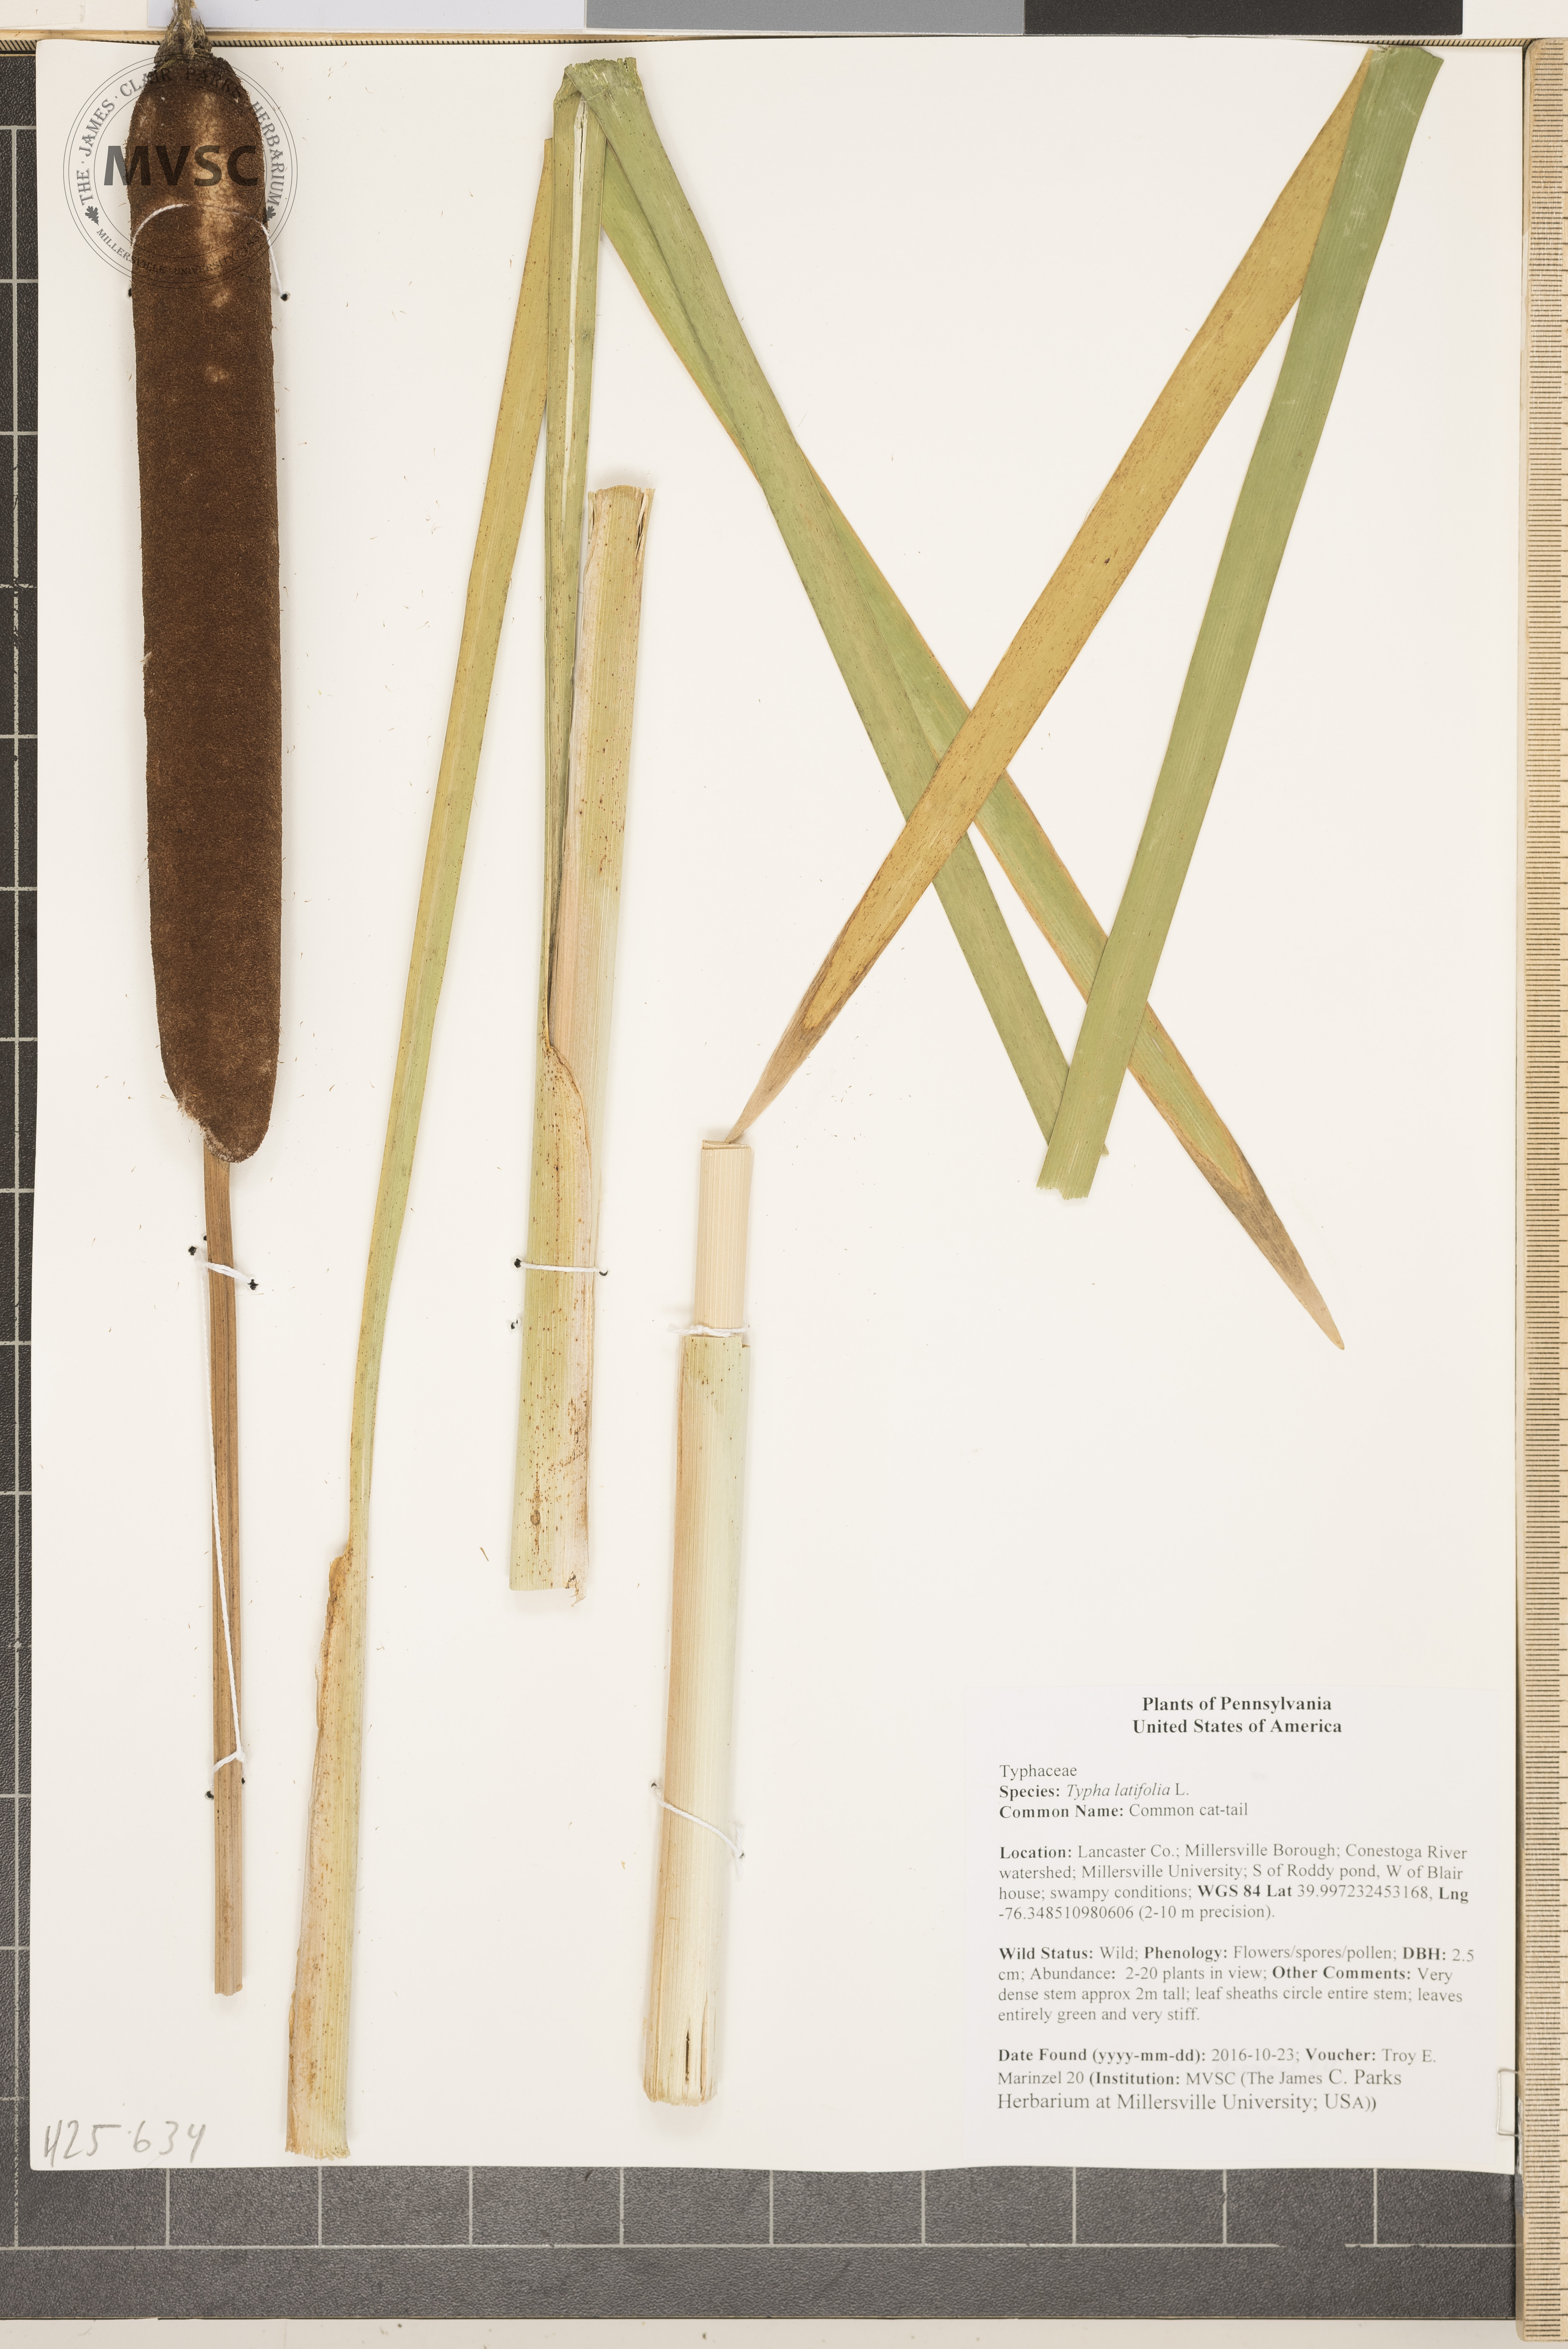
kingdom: Plantae
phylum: Tracheophyta
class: Liliopsida
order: Poales
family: Typhaceae
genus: Typha
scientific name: Typha latifolia
